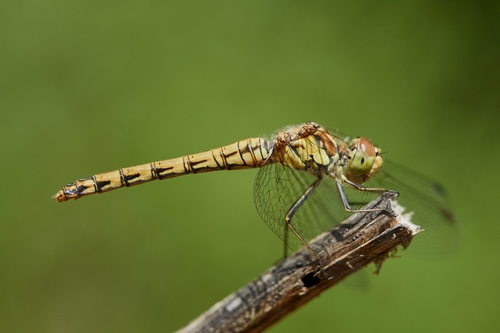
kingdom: Animalia
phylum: Arthropoda
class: Insecta
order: Odonata
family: Libellulidae
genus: Sympetrum
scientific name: Sympetrum striolatum
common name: Common darter
